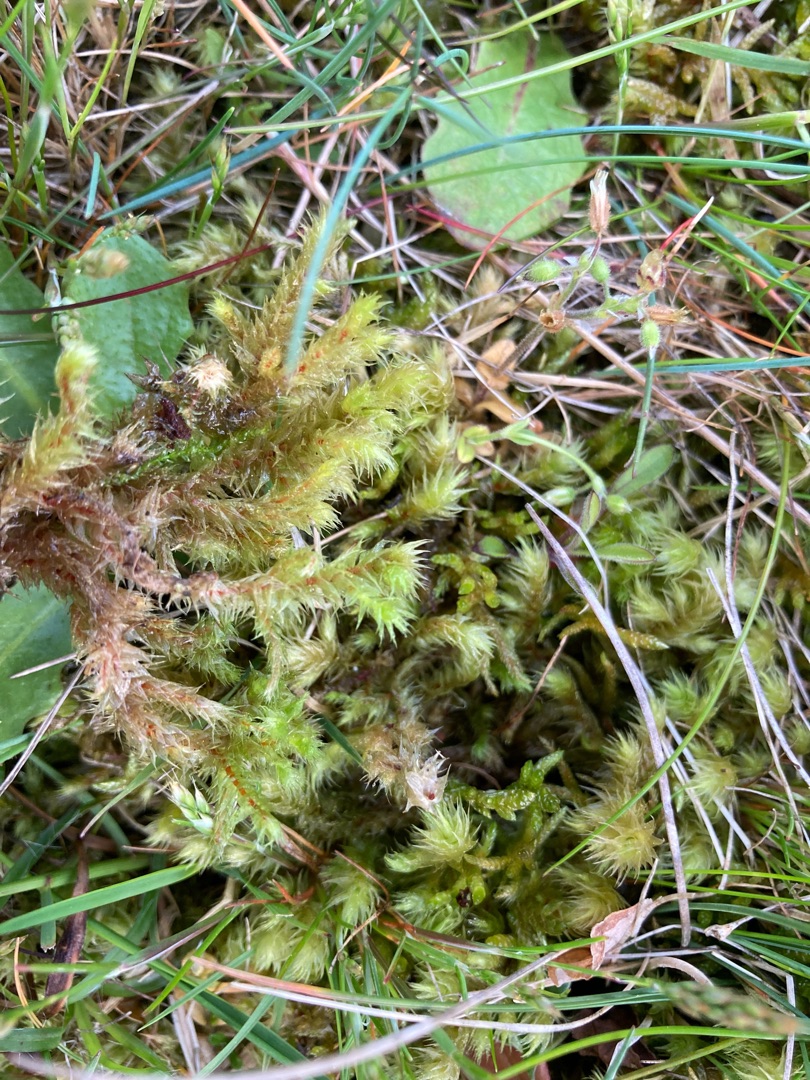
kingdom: Plantae
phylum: Bryophyta
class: Bryopsida
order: Hypnales
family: Hylocomiaceae
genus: Hylocomiadelphus
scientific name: Hylocomiadelphus triquetrus
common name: Stor kransemos
